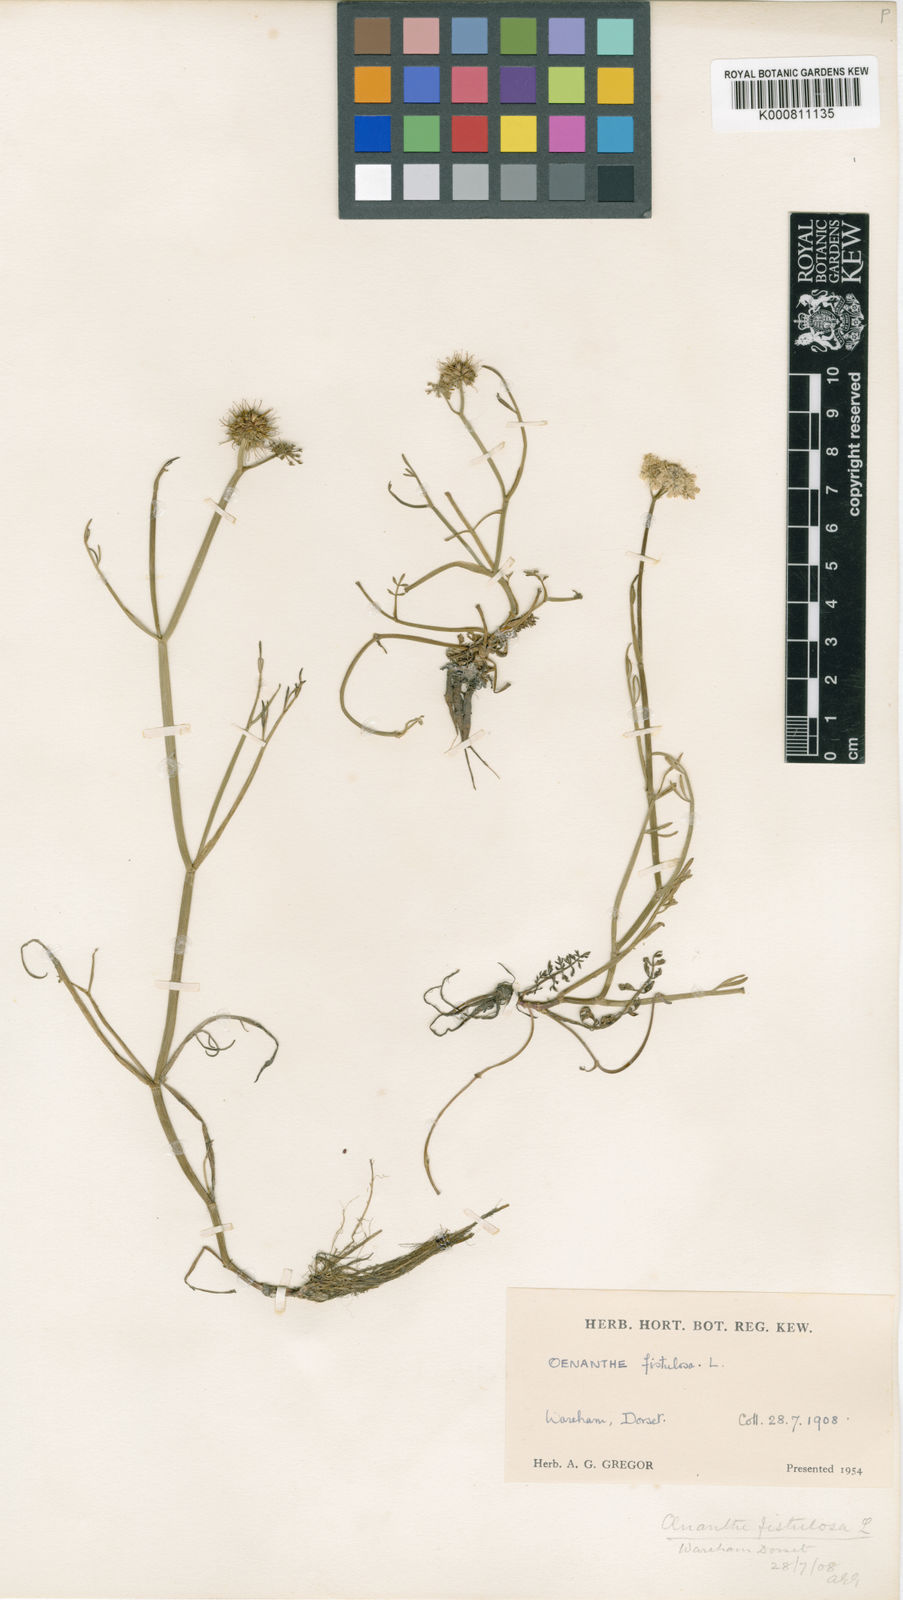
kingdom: Plantae
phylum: Tracheophyta
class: Magnoliopsida
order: Apiales
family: Apiaceae
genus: Oenanthe
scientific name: Oenanthe fistulosa
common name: Tubular water-dropwort
